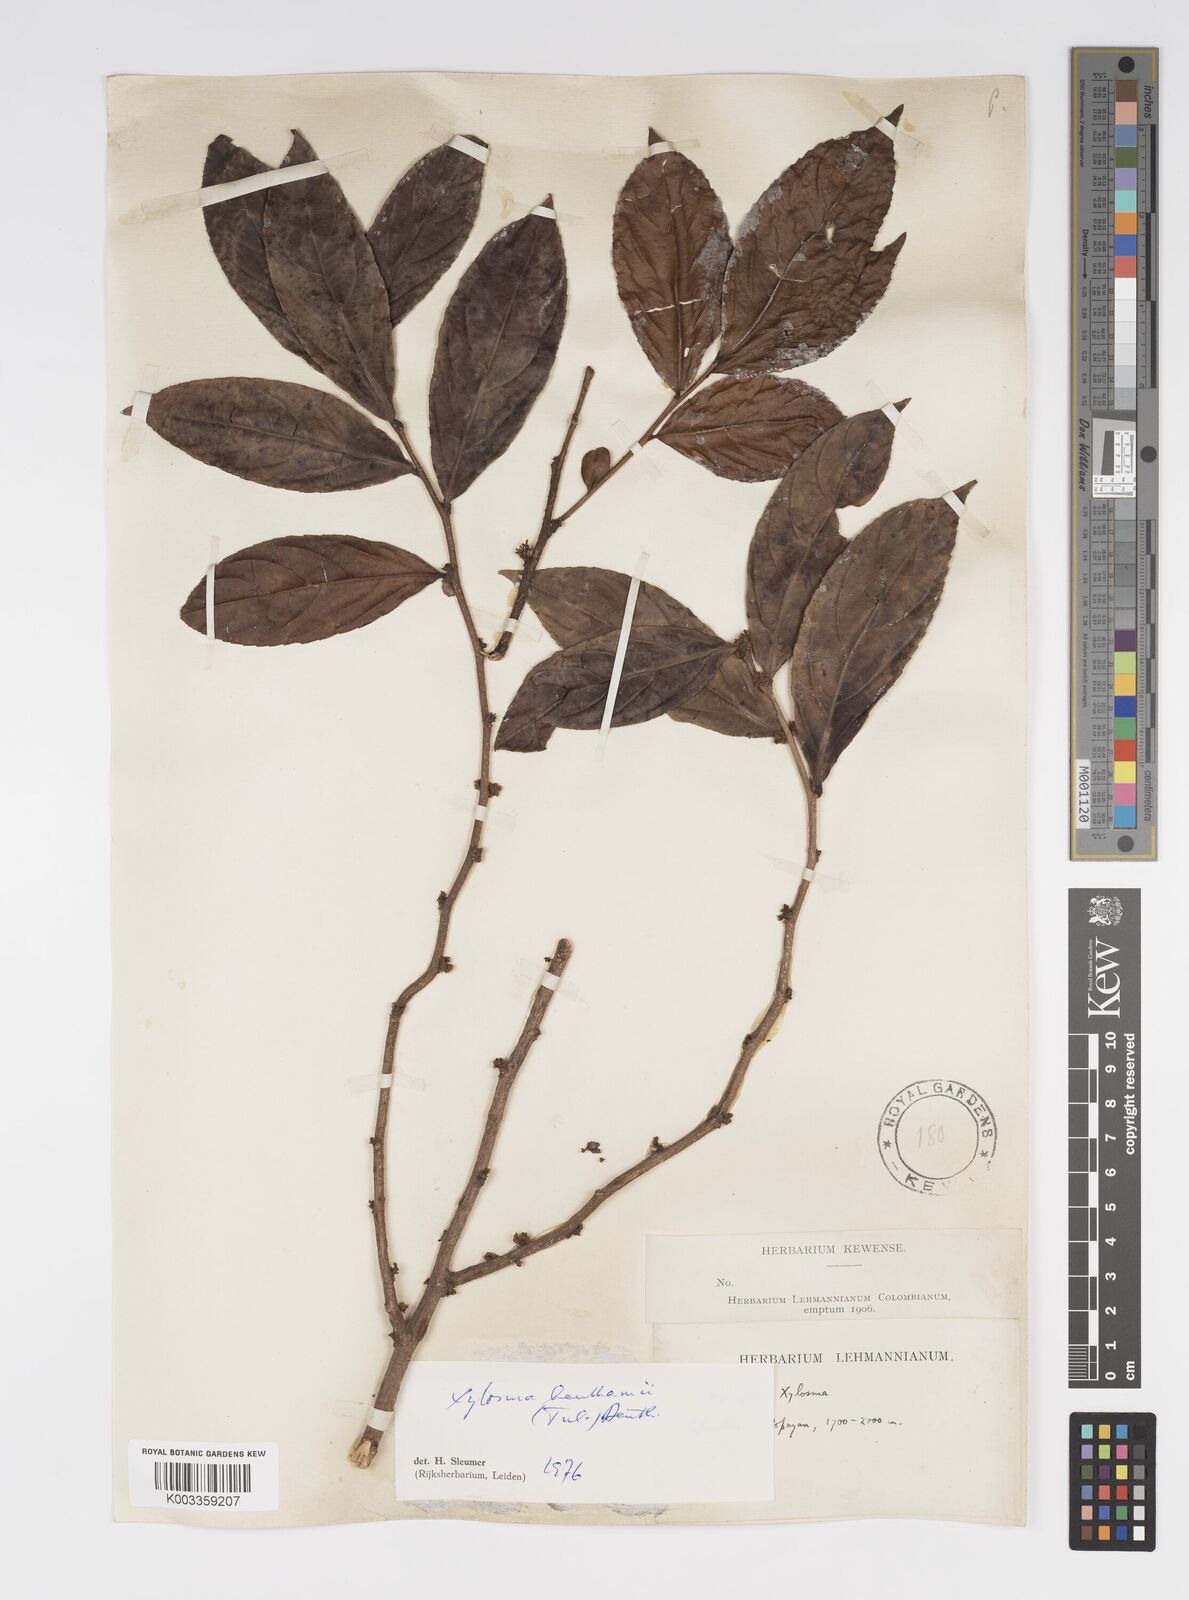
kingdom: Plantae
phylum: Tracheophyta
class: Magnoliopsida
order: Malpighiales
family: Salicaceae
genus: Xylosma
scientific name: Xylosma benthamii
